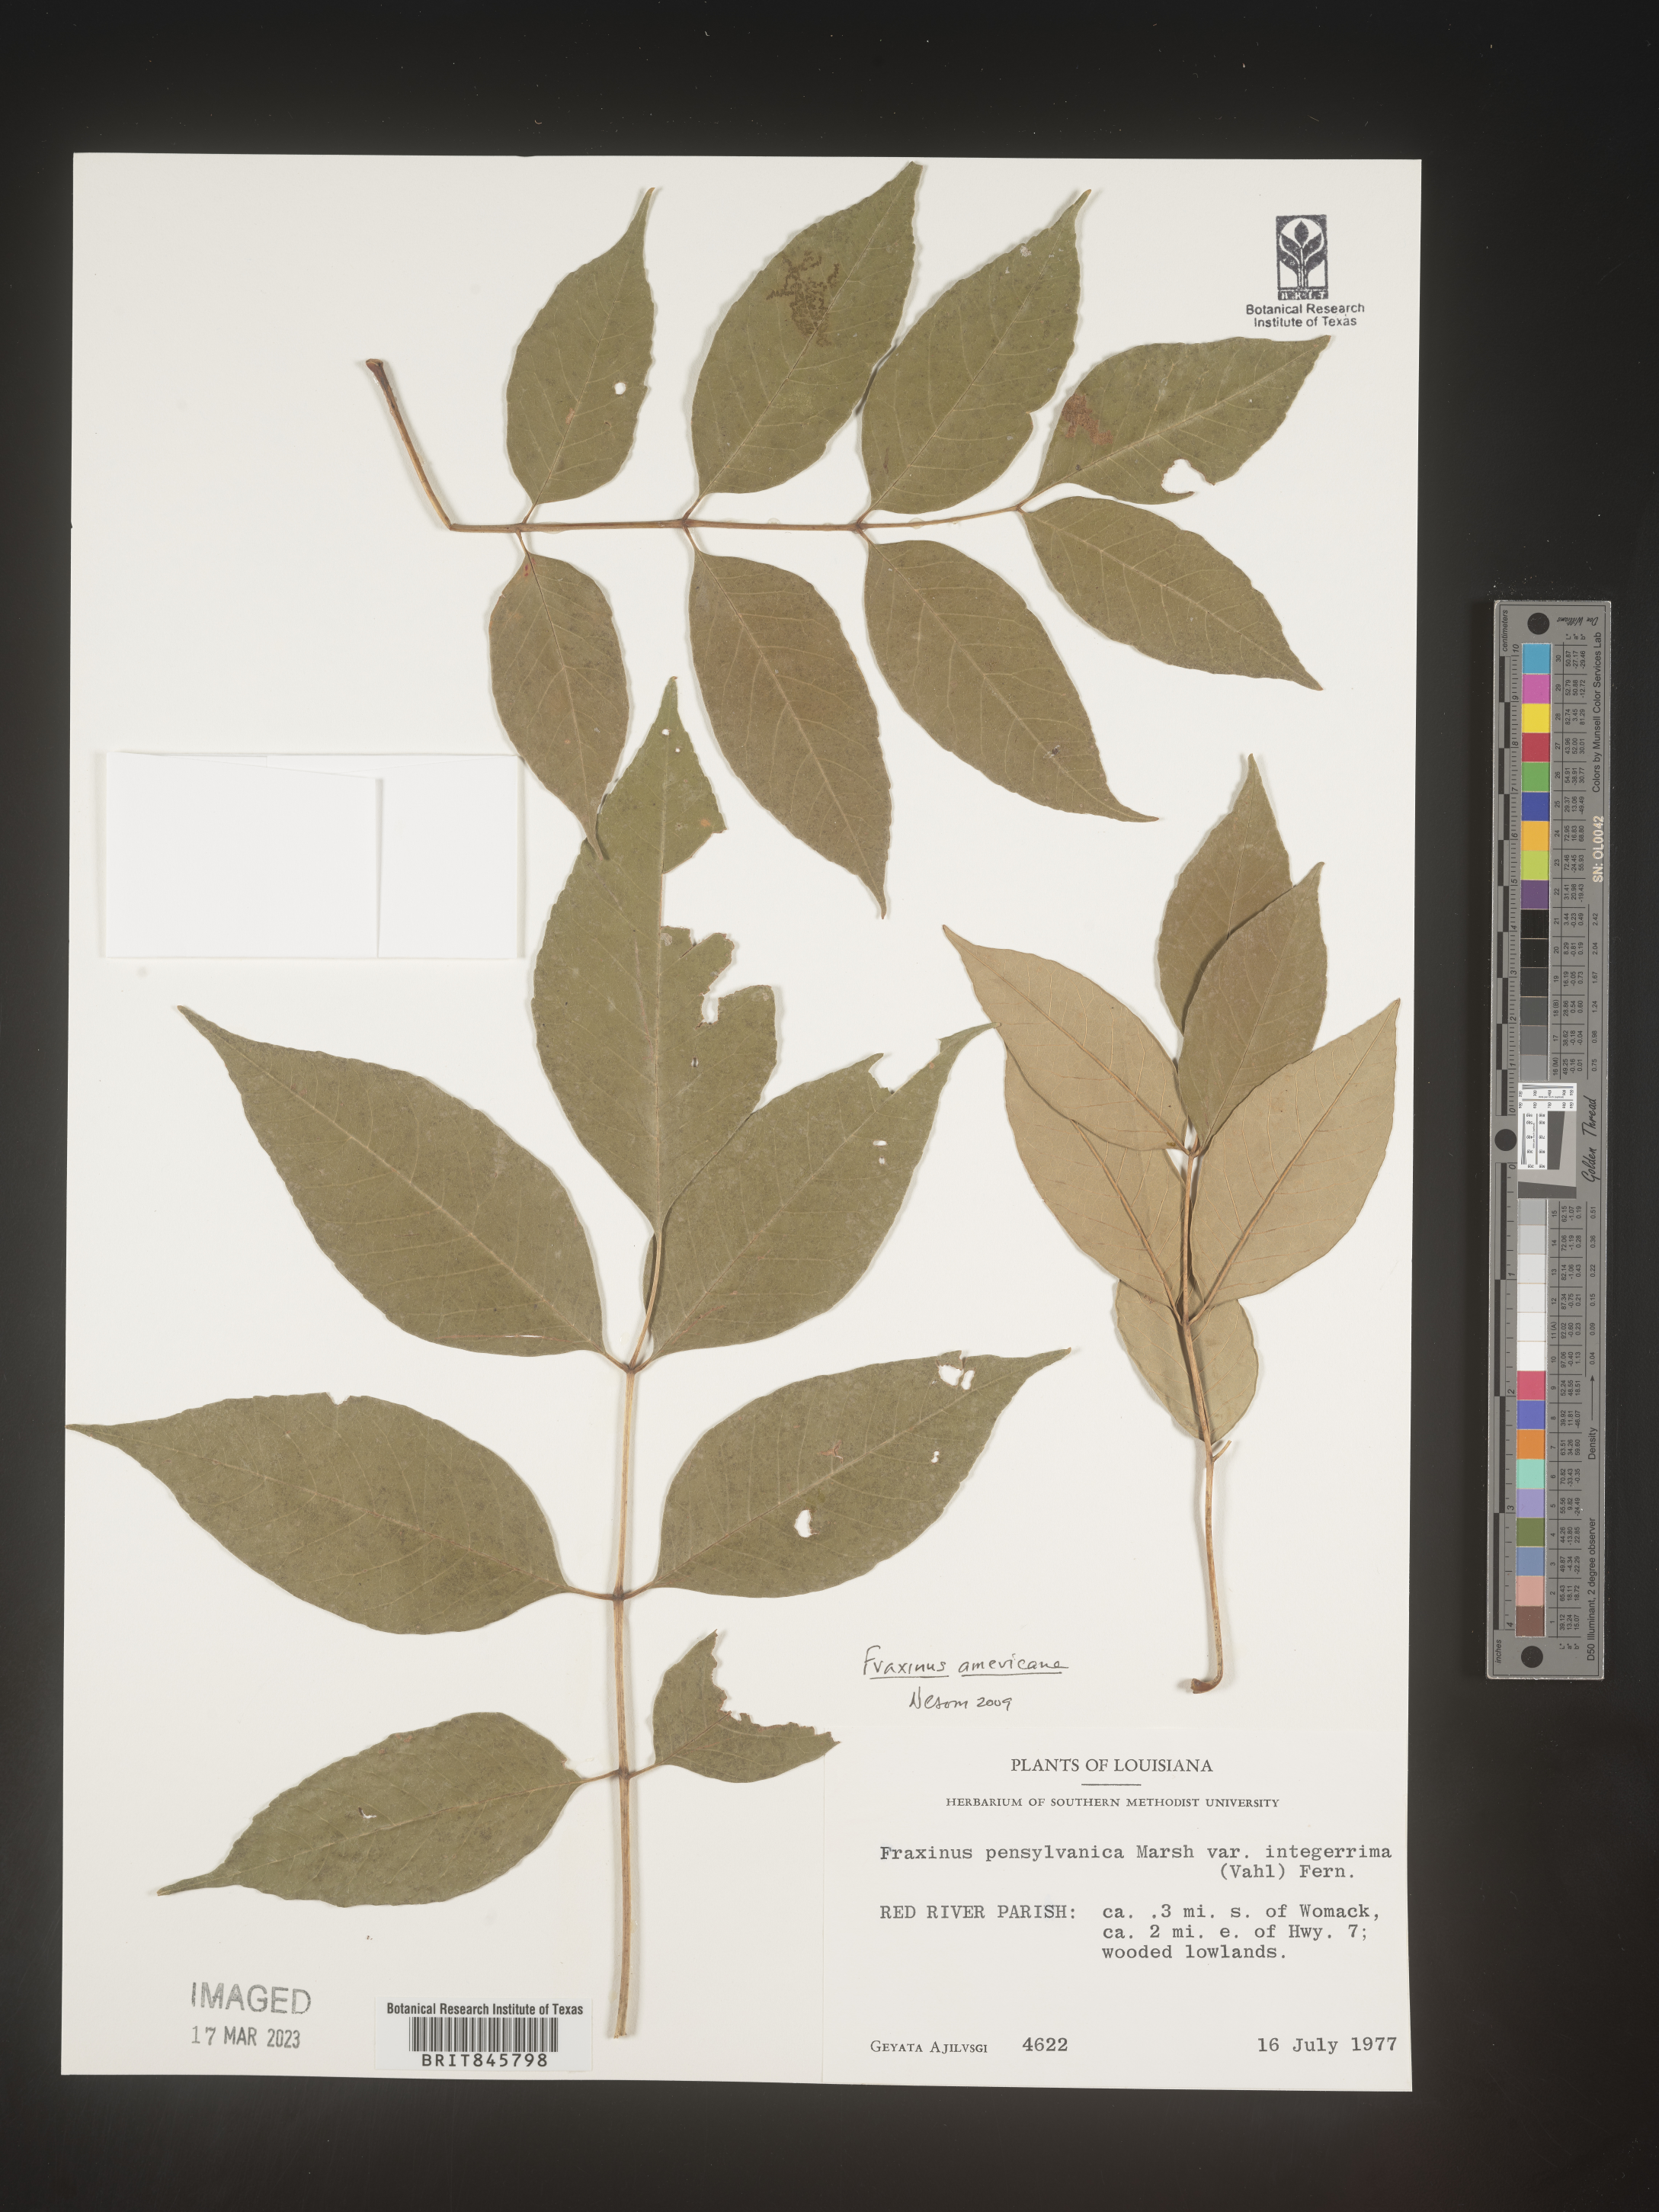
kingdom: Plantae
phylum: Tracheophyta
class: Magnoliopsida
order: Lamiales
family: Oleaceae
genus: Fraxinus
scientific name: Fraxinus americana
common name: White ash
